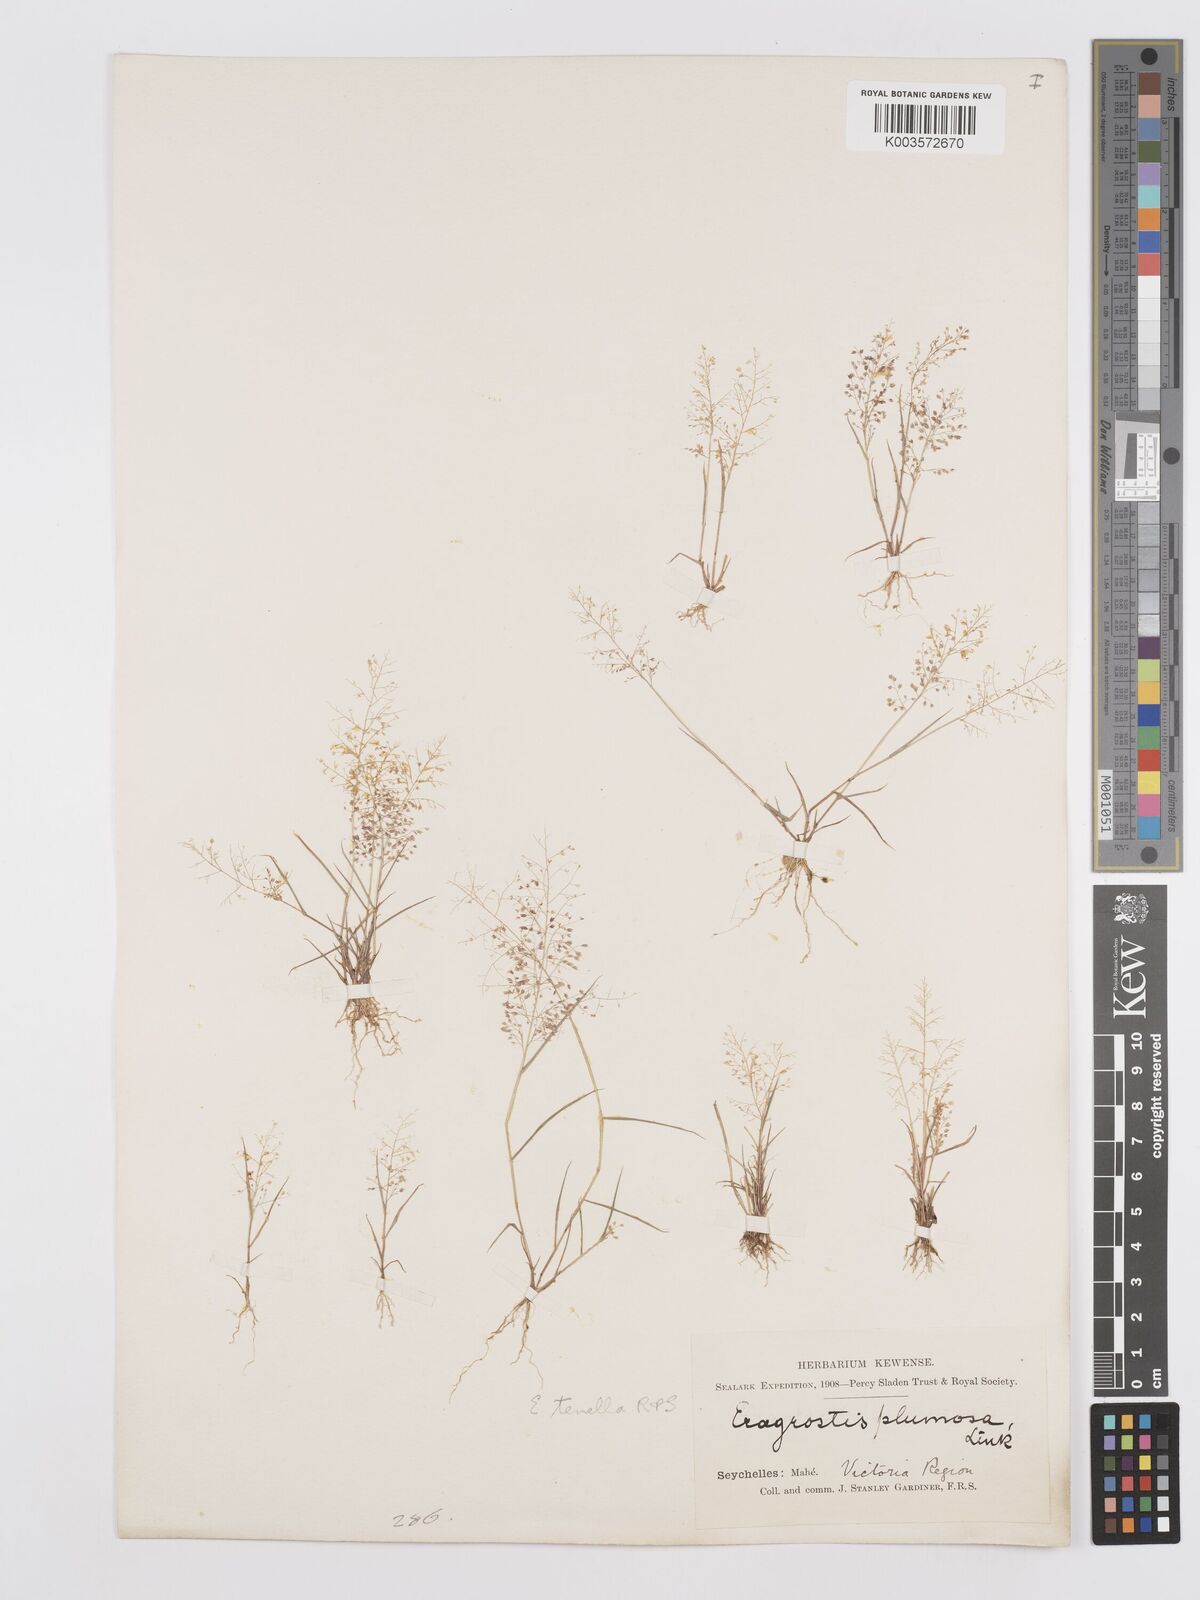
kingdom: Plantae
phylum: Tracheophyta
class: Liliopsida
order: Poales
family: Poaceae
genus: Eragrostis
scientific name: Eragrostis tenella
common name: Japanese lovegrass
